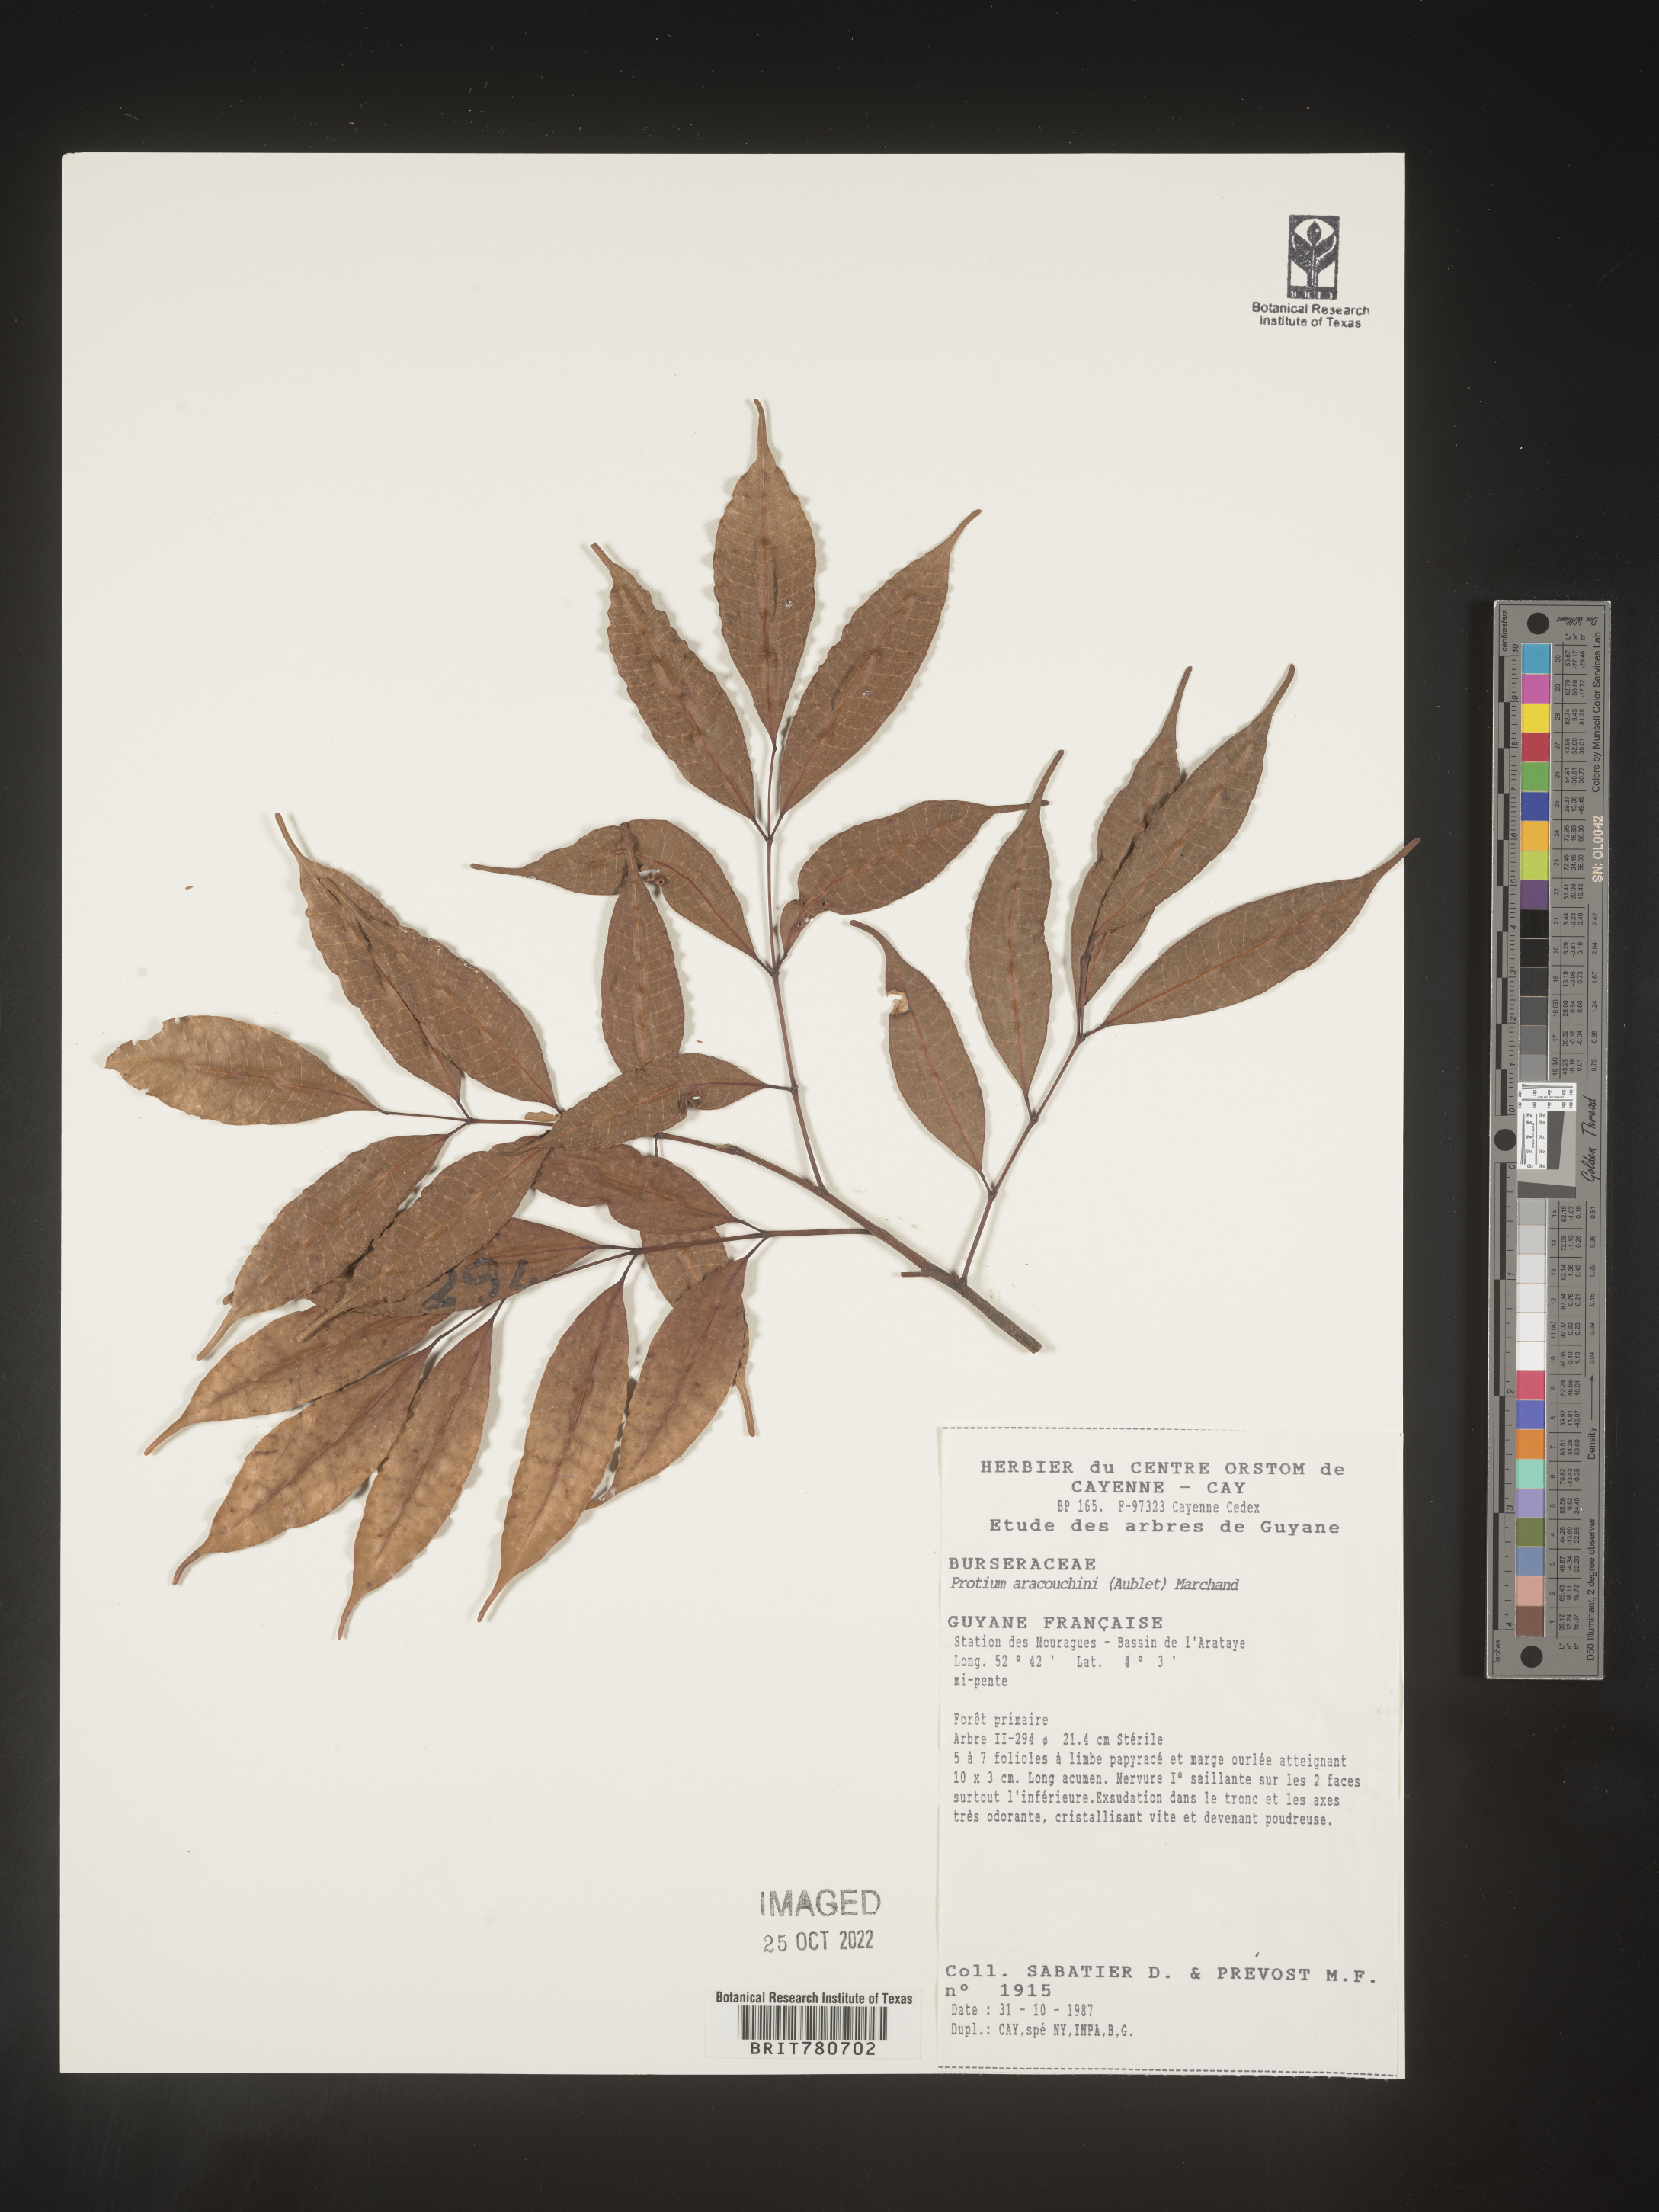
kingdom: Plantae
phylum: Tracheophyta
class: Magnoliopsida
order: Sapindales
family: Burseraceae
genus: Protium
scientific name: Protium
